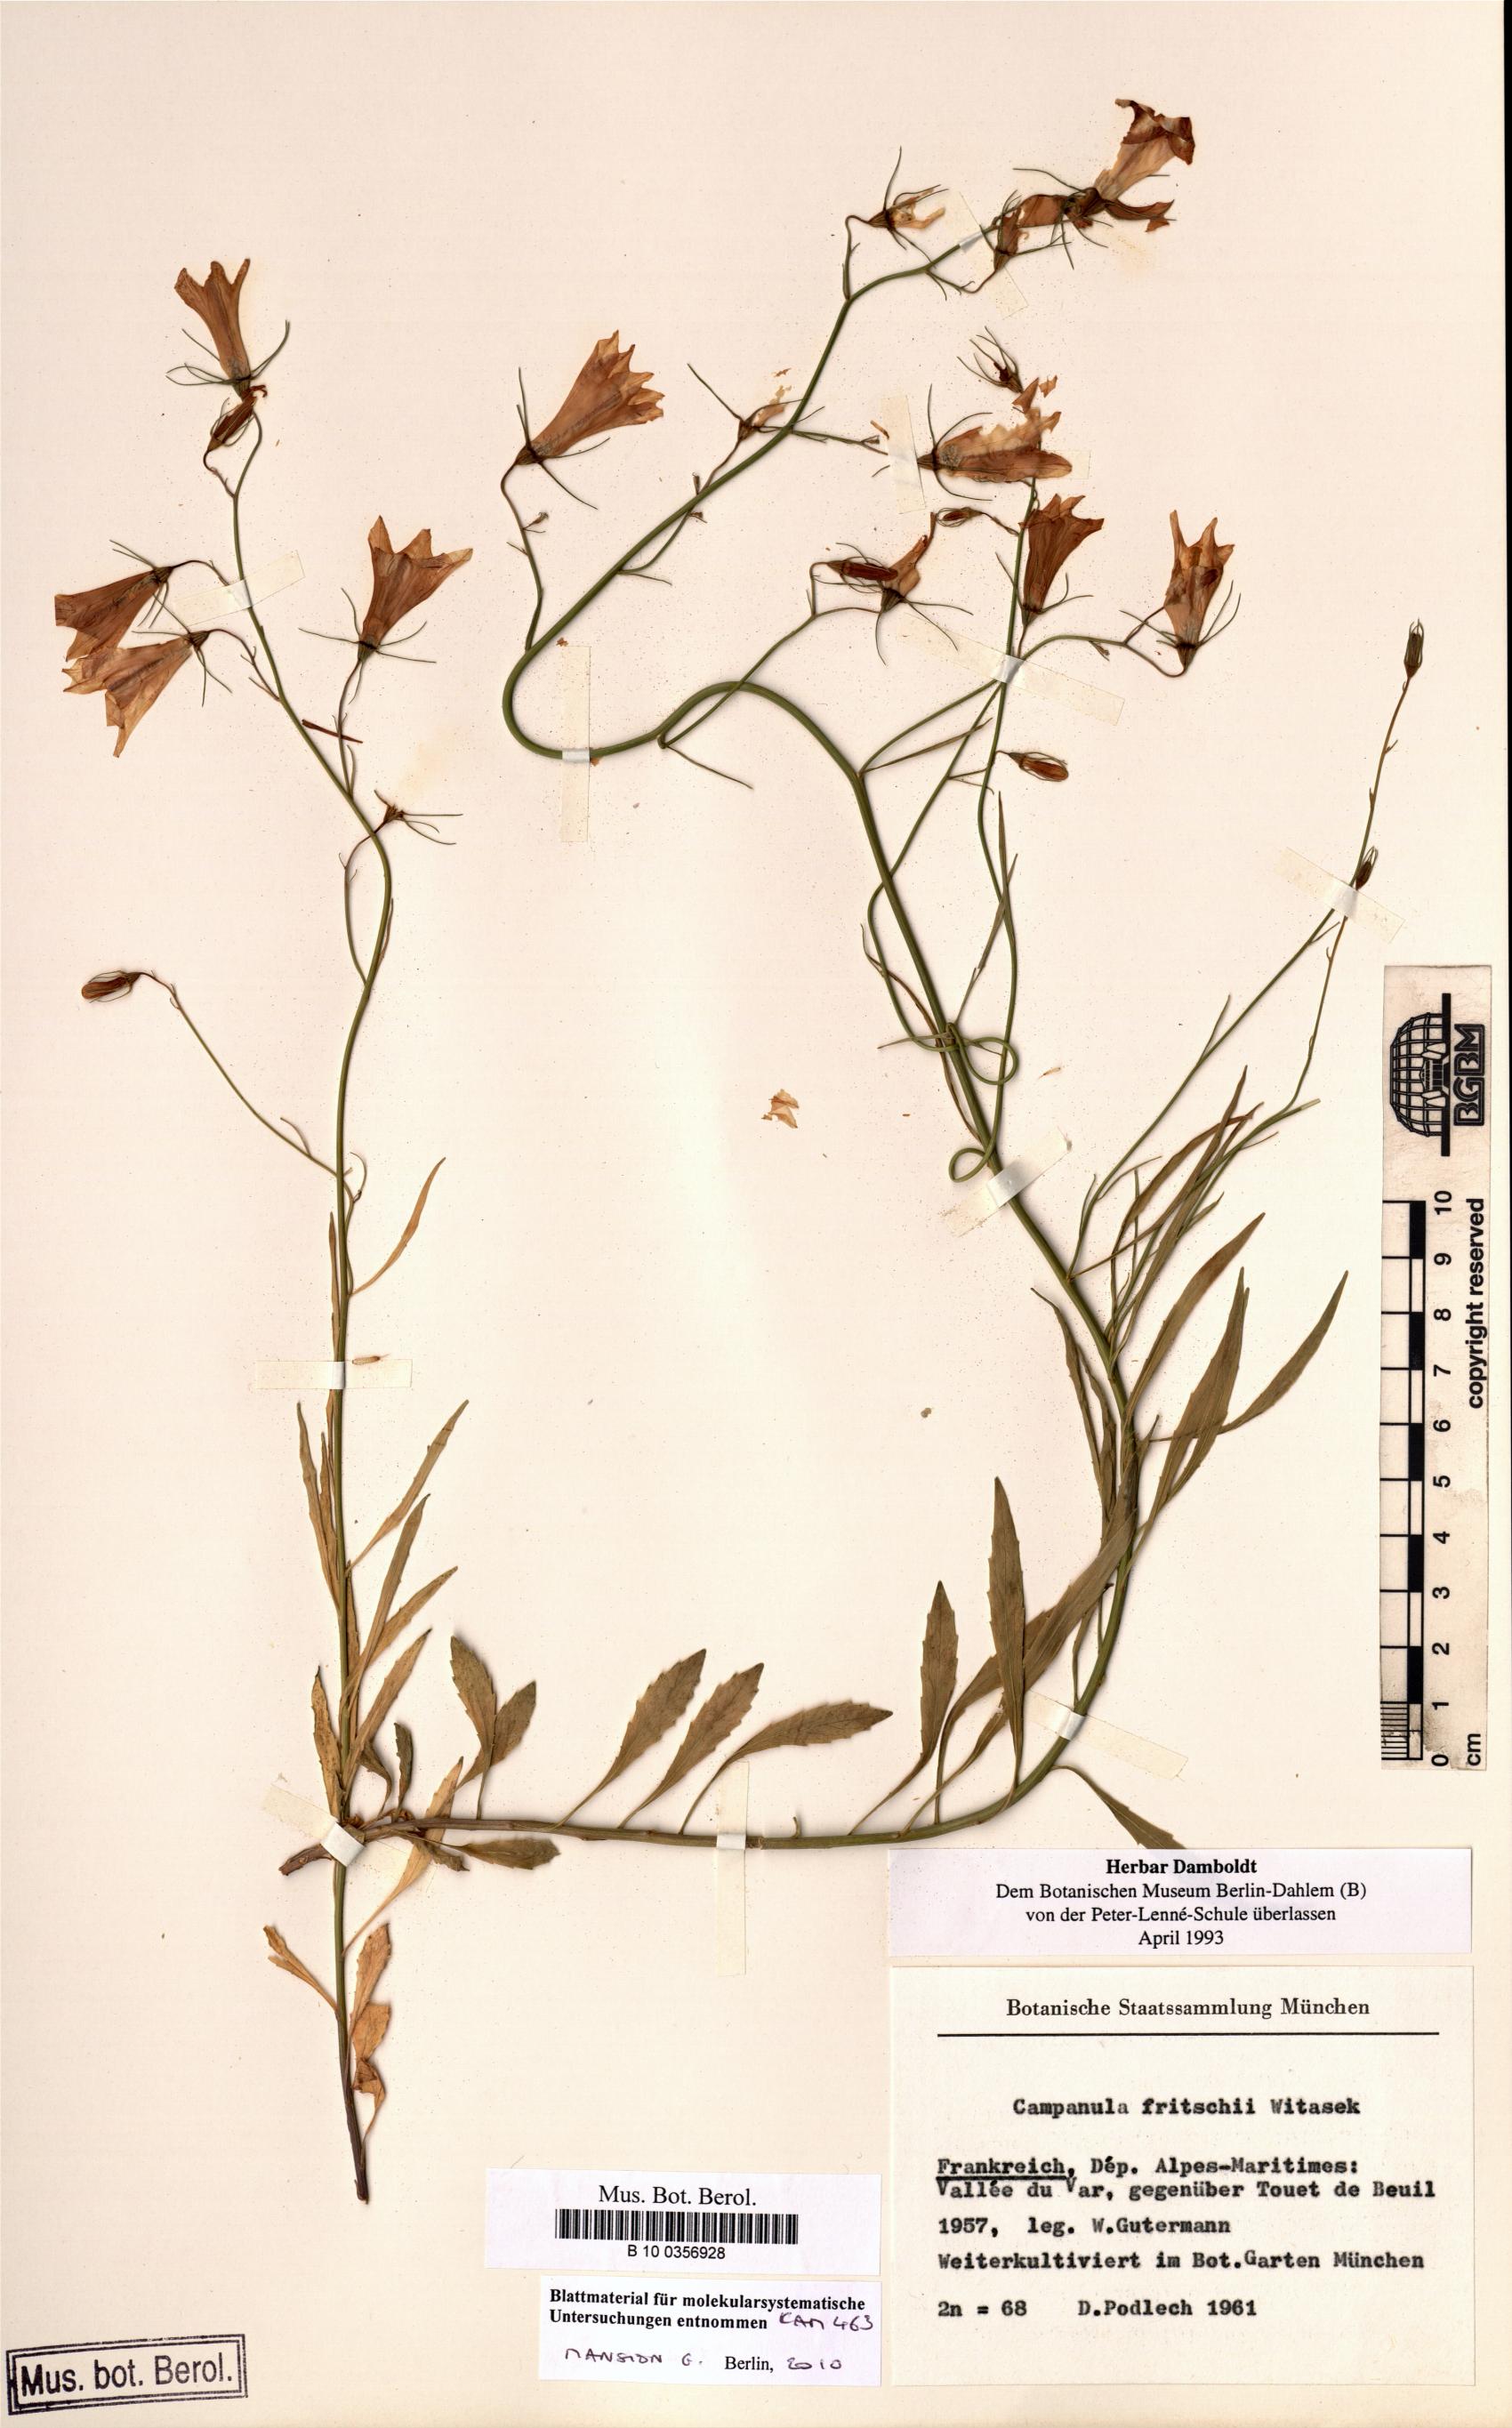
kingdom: Plantae
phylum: Tracheophyta
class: Magnoliopsida
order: Asterales
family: Campanulaceae
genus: Campanula
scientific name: Campanula fritschii
